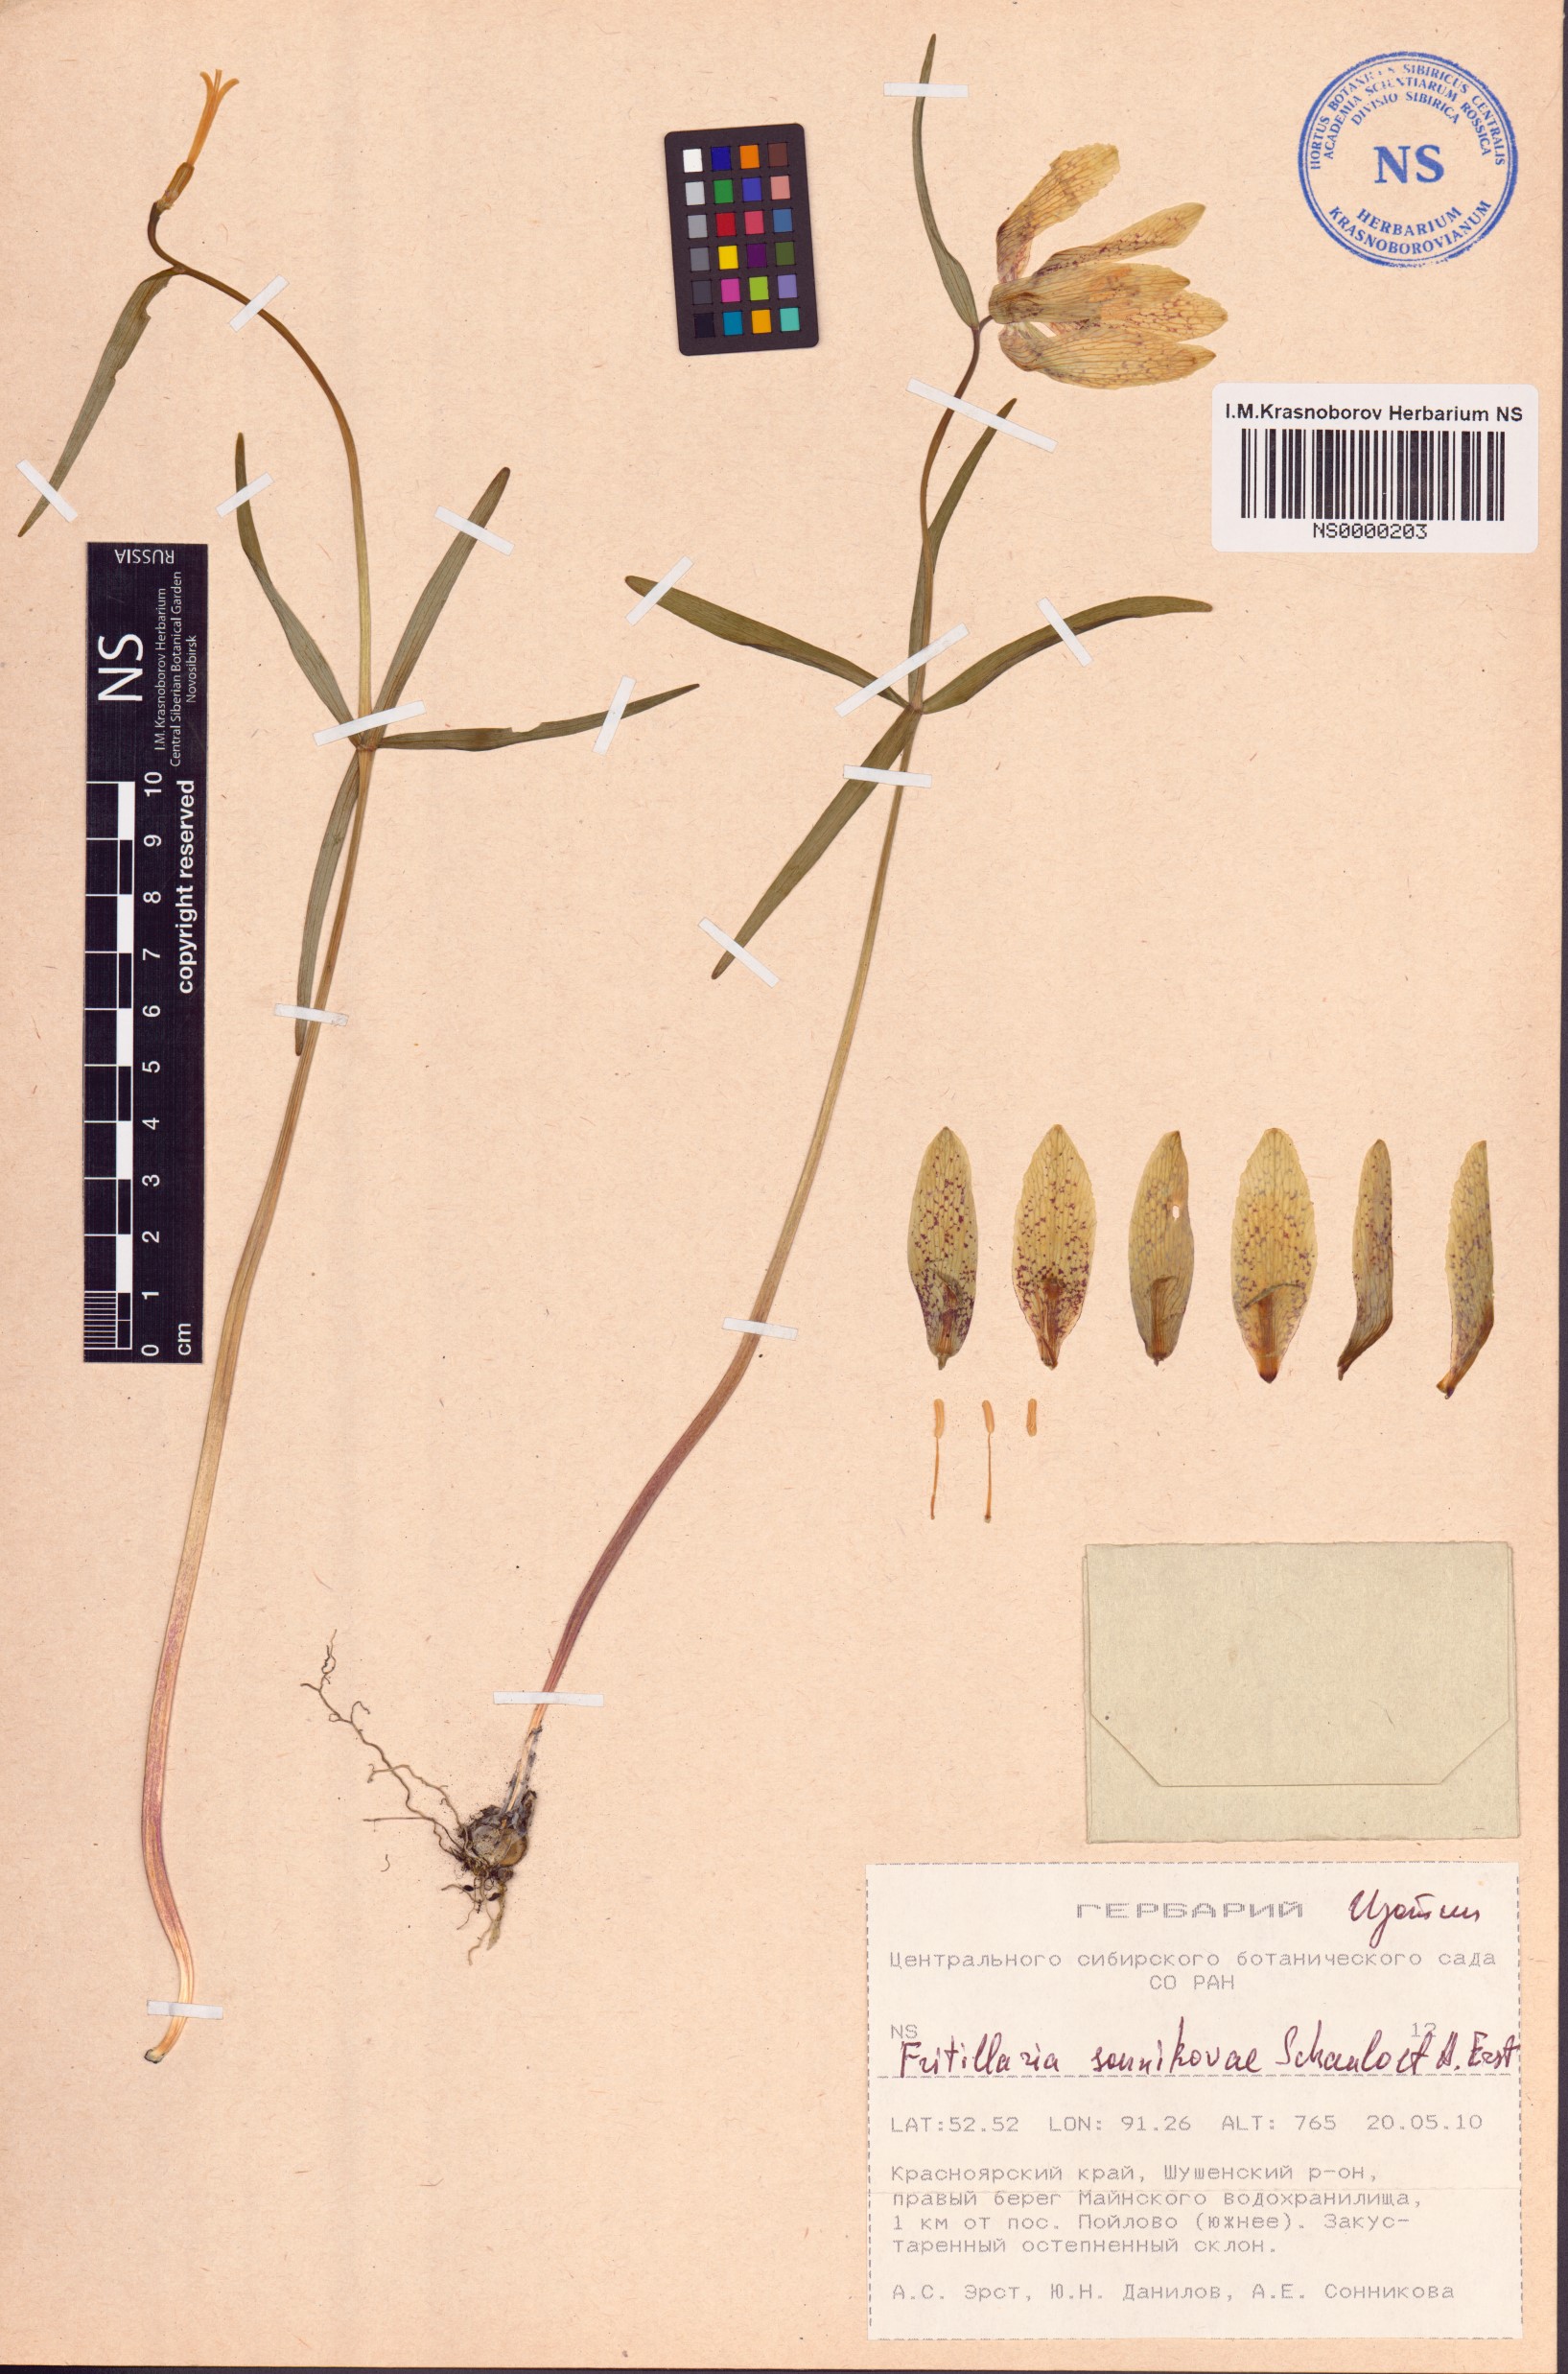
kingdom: Plantae
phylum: Tracheophyta
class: Liliopsida
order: Liliales
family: Liliaceae
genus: Fritillaria
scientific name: Fritillaria sonnikovae
